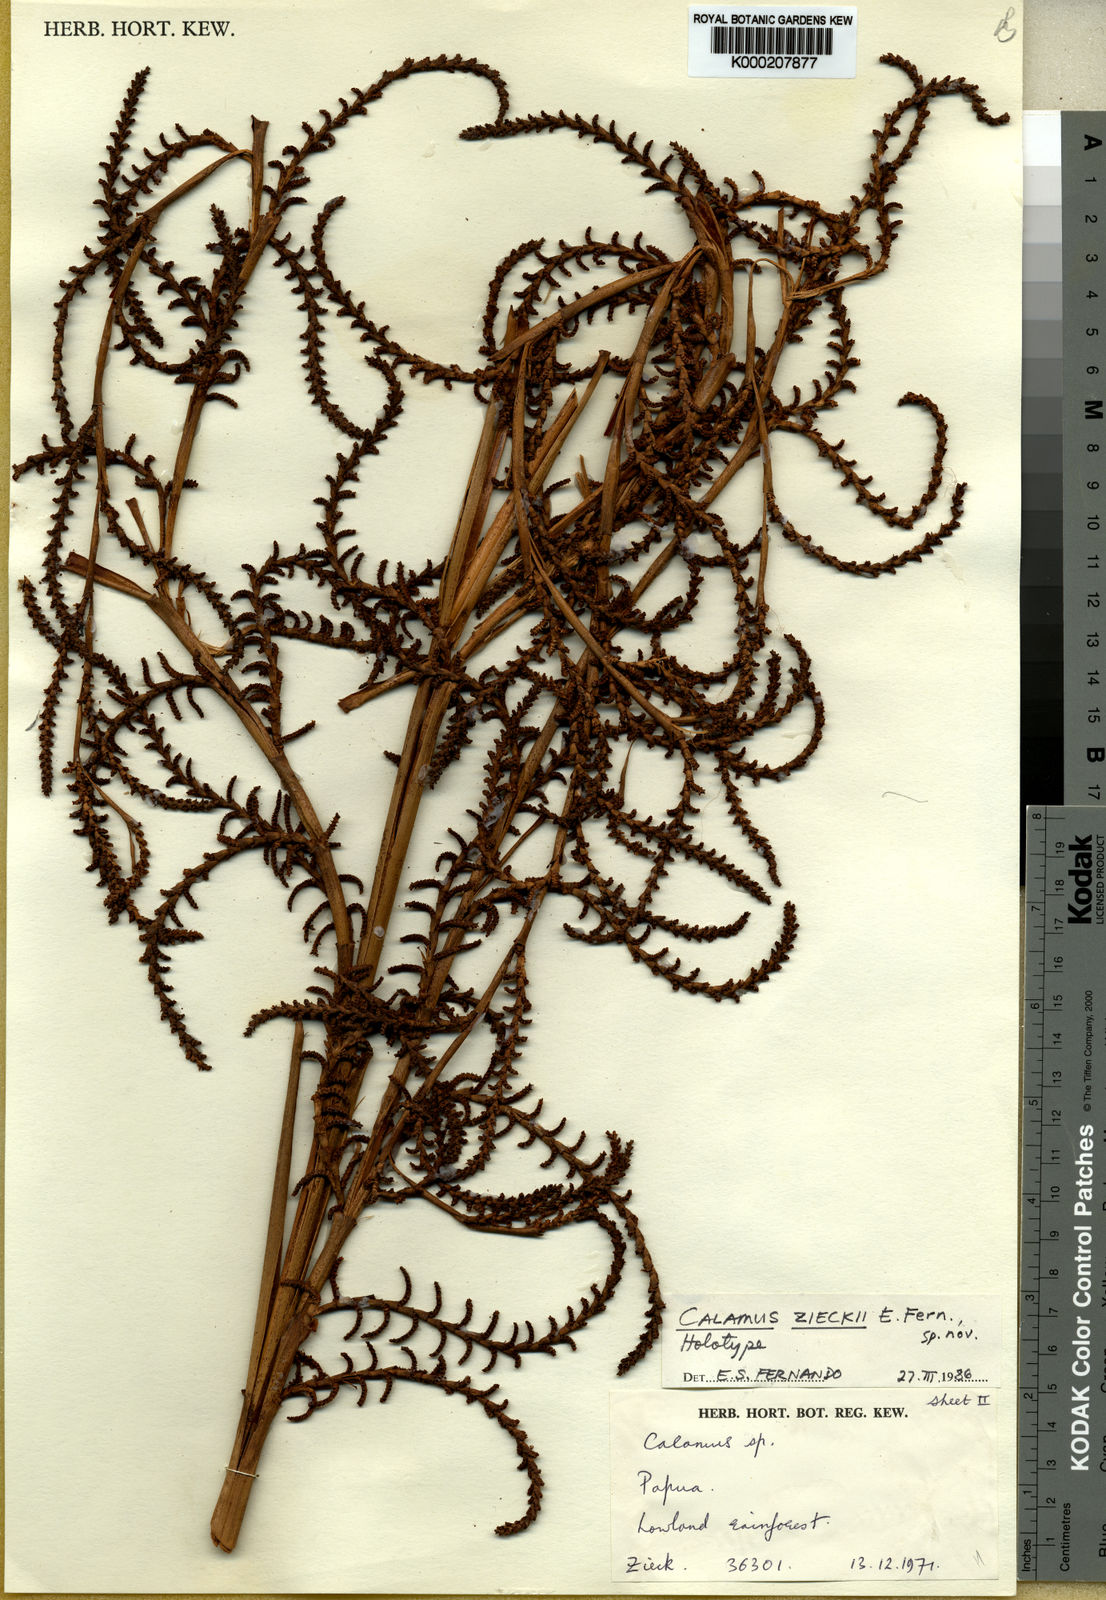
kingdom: Plantae
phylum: Tracheophyta
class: Liliopsida
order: Arecales
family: Arecaceae
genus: Calamus
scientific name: Calamus zieckii
